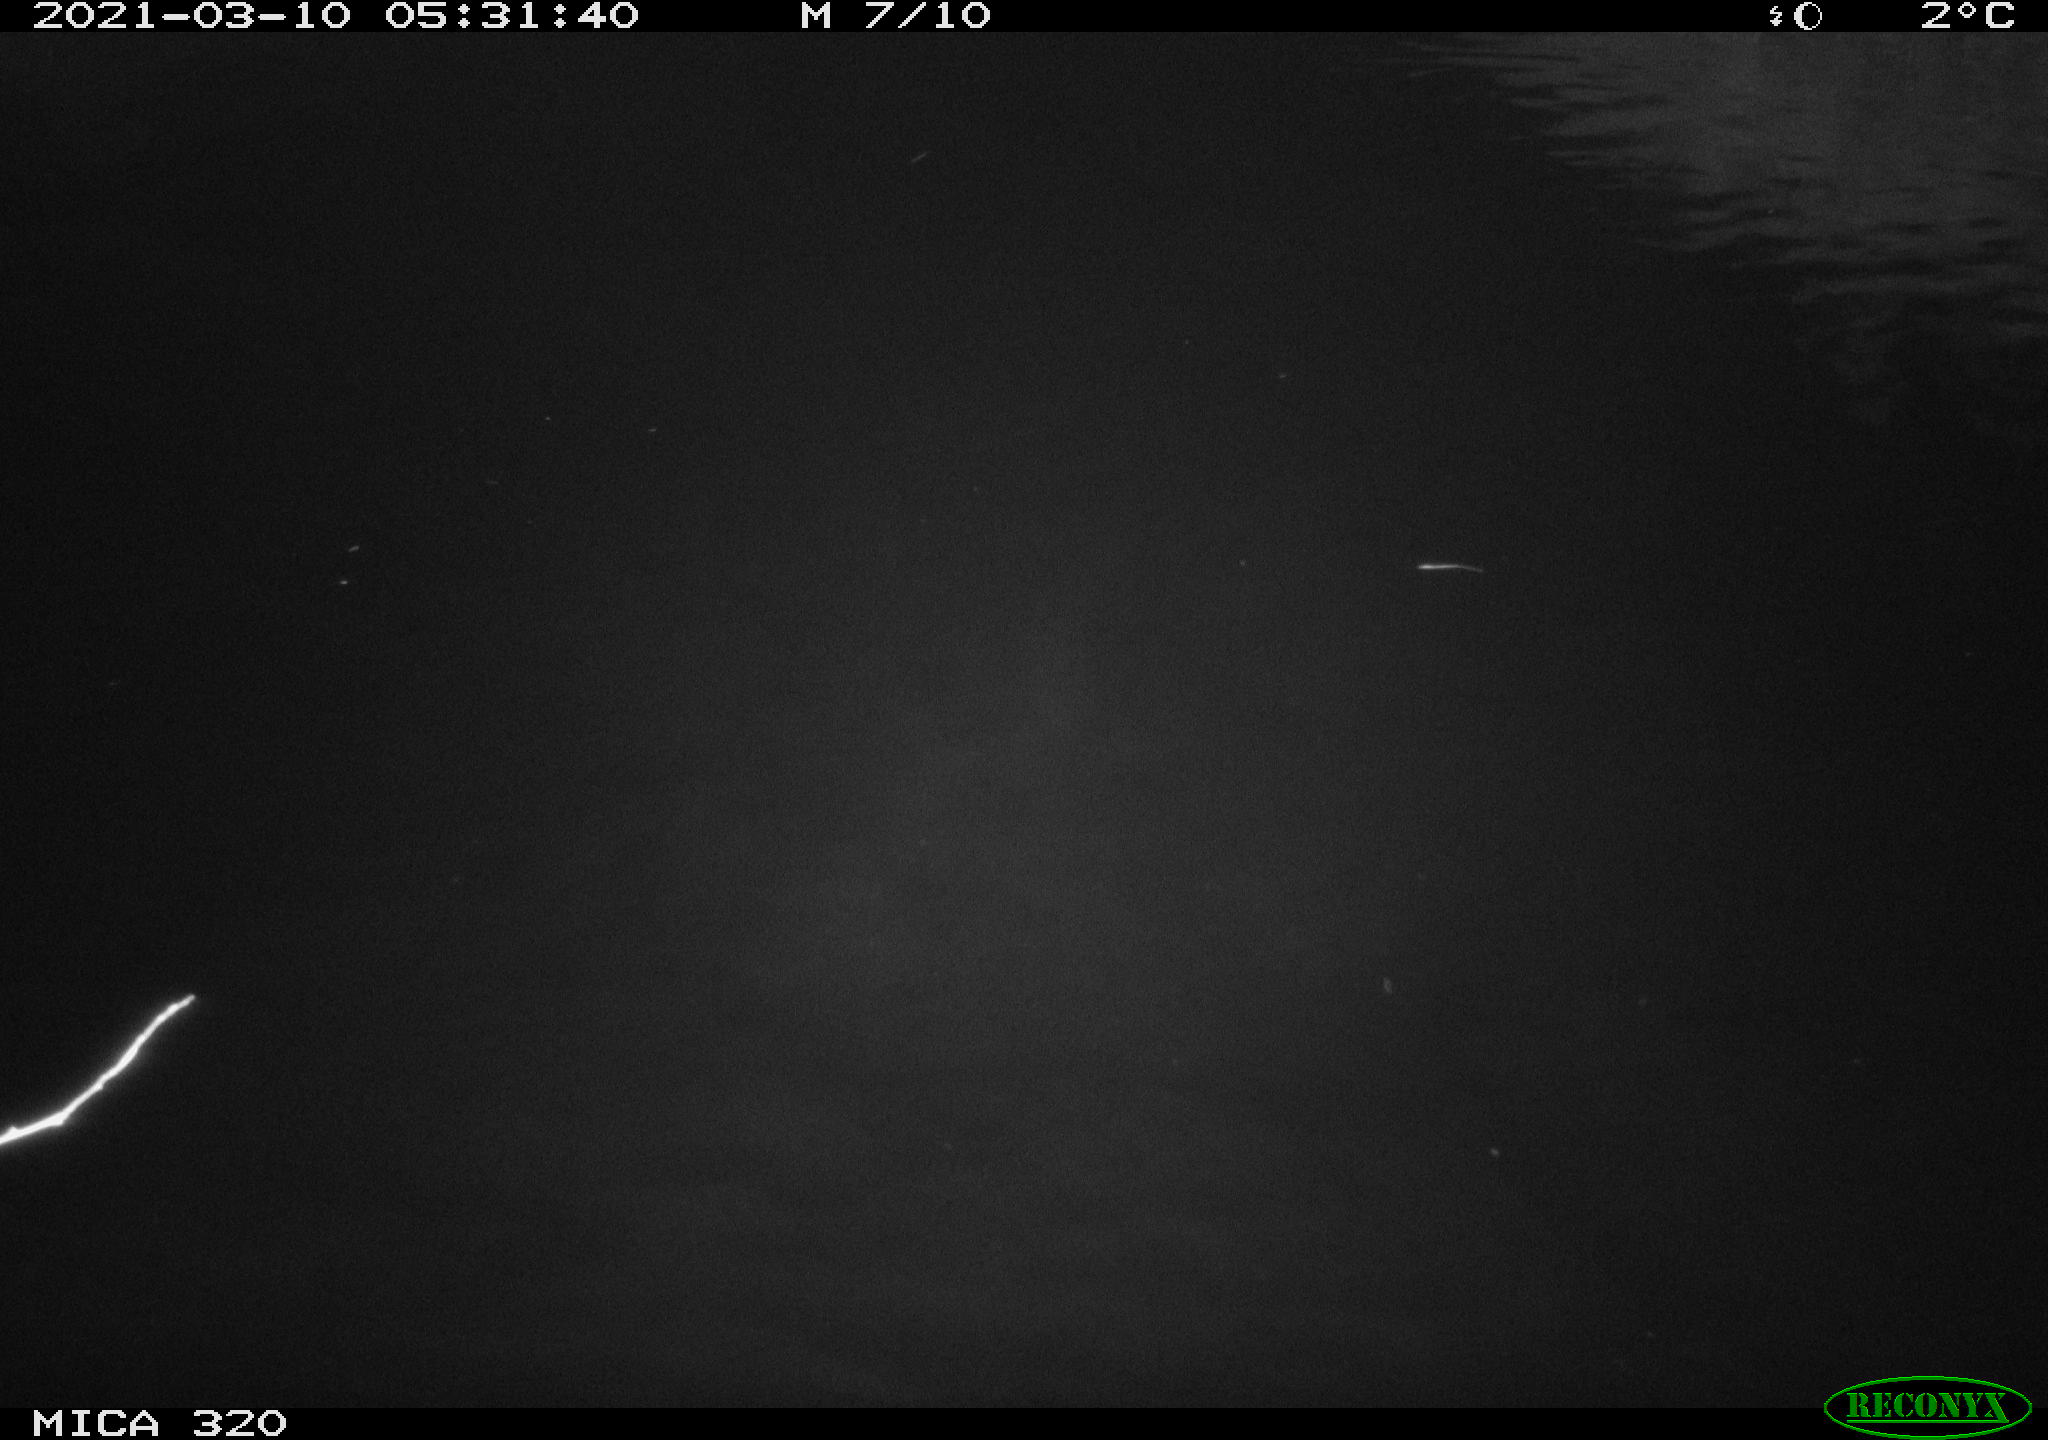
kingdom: Animalia
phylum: Chordata
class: Aves
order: Anseriformes
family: Anatidae
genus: Anas
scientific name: Anas platyrhynchos
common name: Mallard
